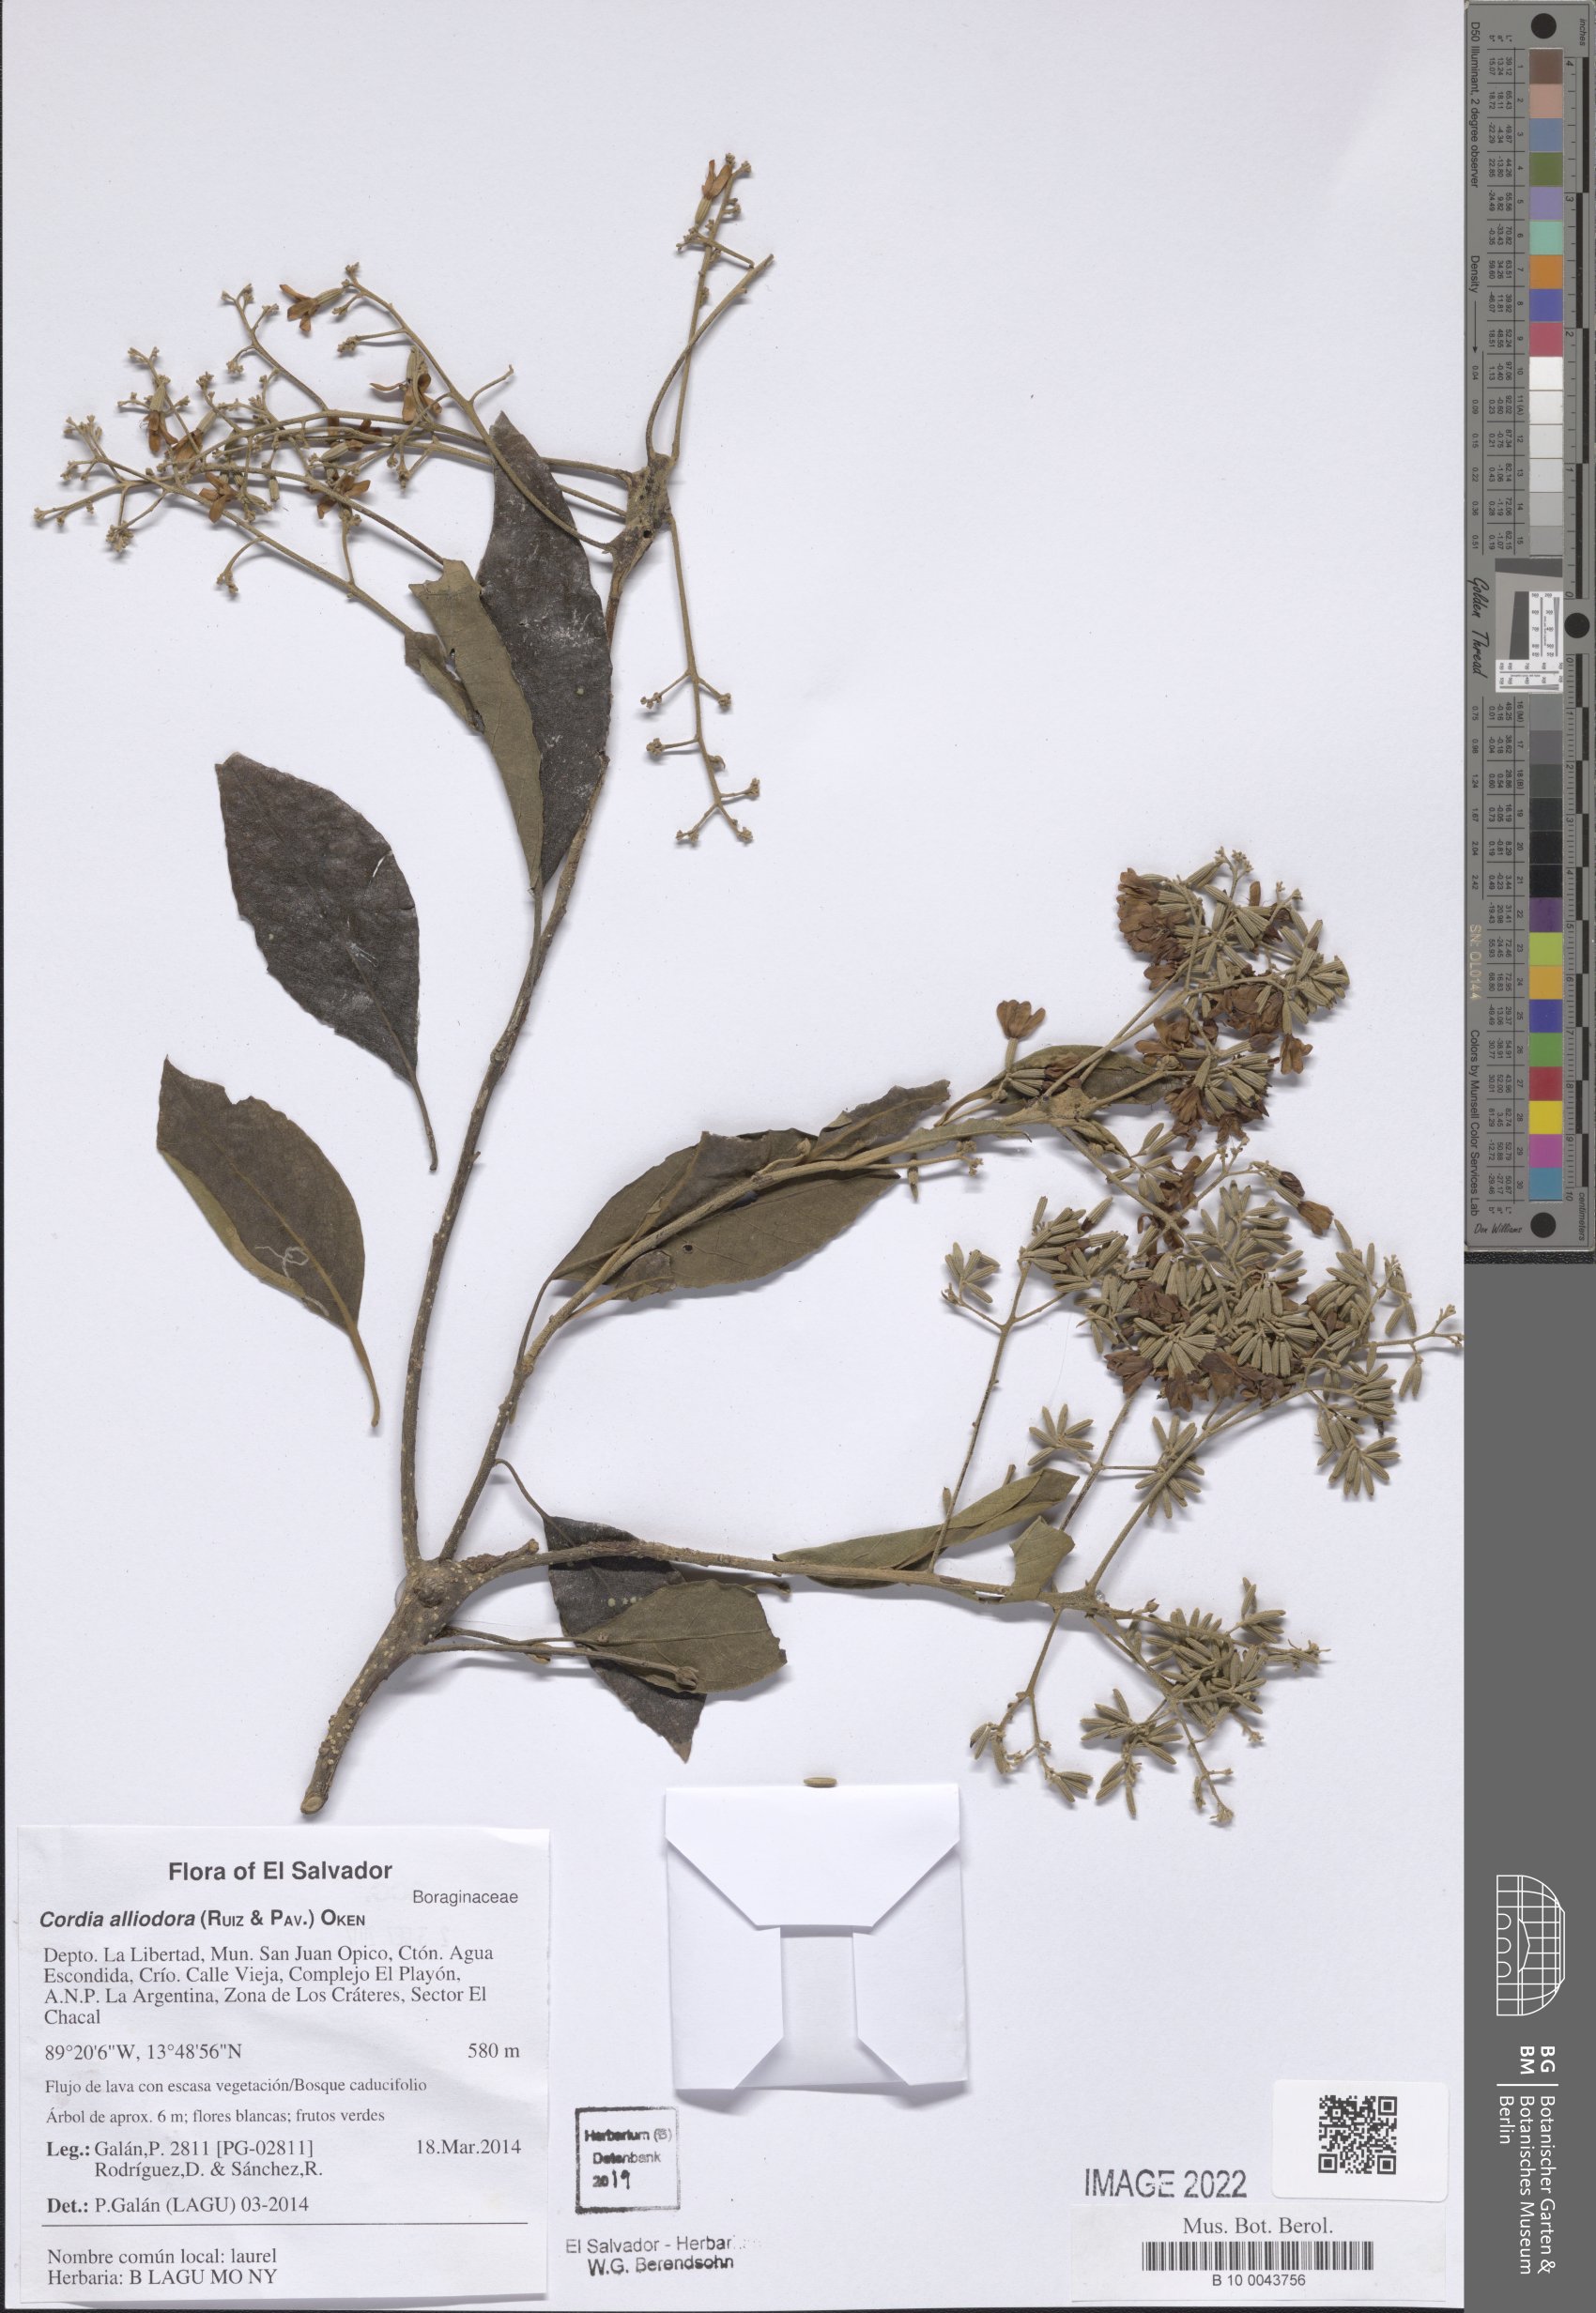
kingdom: Plantae
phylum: Tracheophyta
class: Magnoliopsida
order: Boraginales
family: Cordiaceae
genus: Cordia
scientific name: Cordia alliodora
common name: Spanish elm
